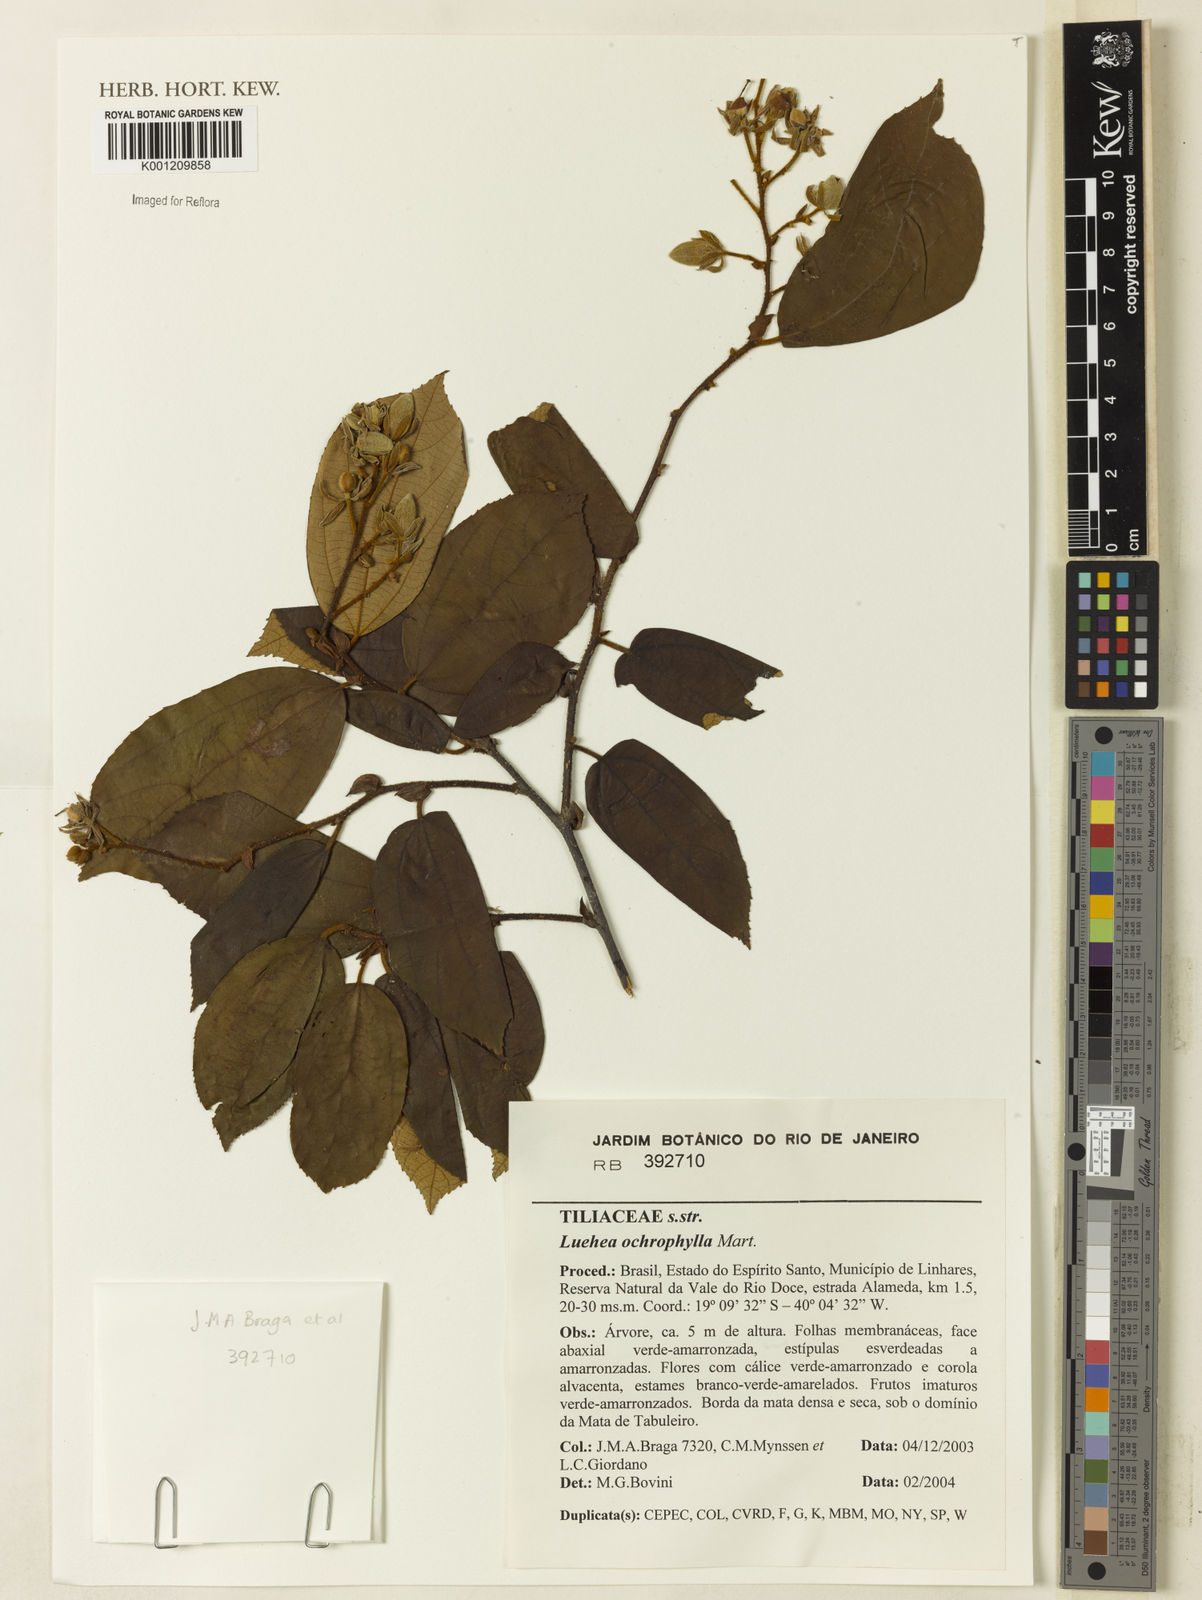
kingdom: Plantae
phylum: Tracheophyta
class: Magnoliopsida
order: Malvales
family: Malvaceae
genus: Luehea
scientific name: Luehea ochrophylla
